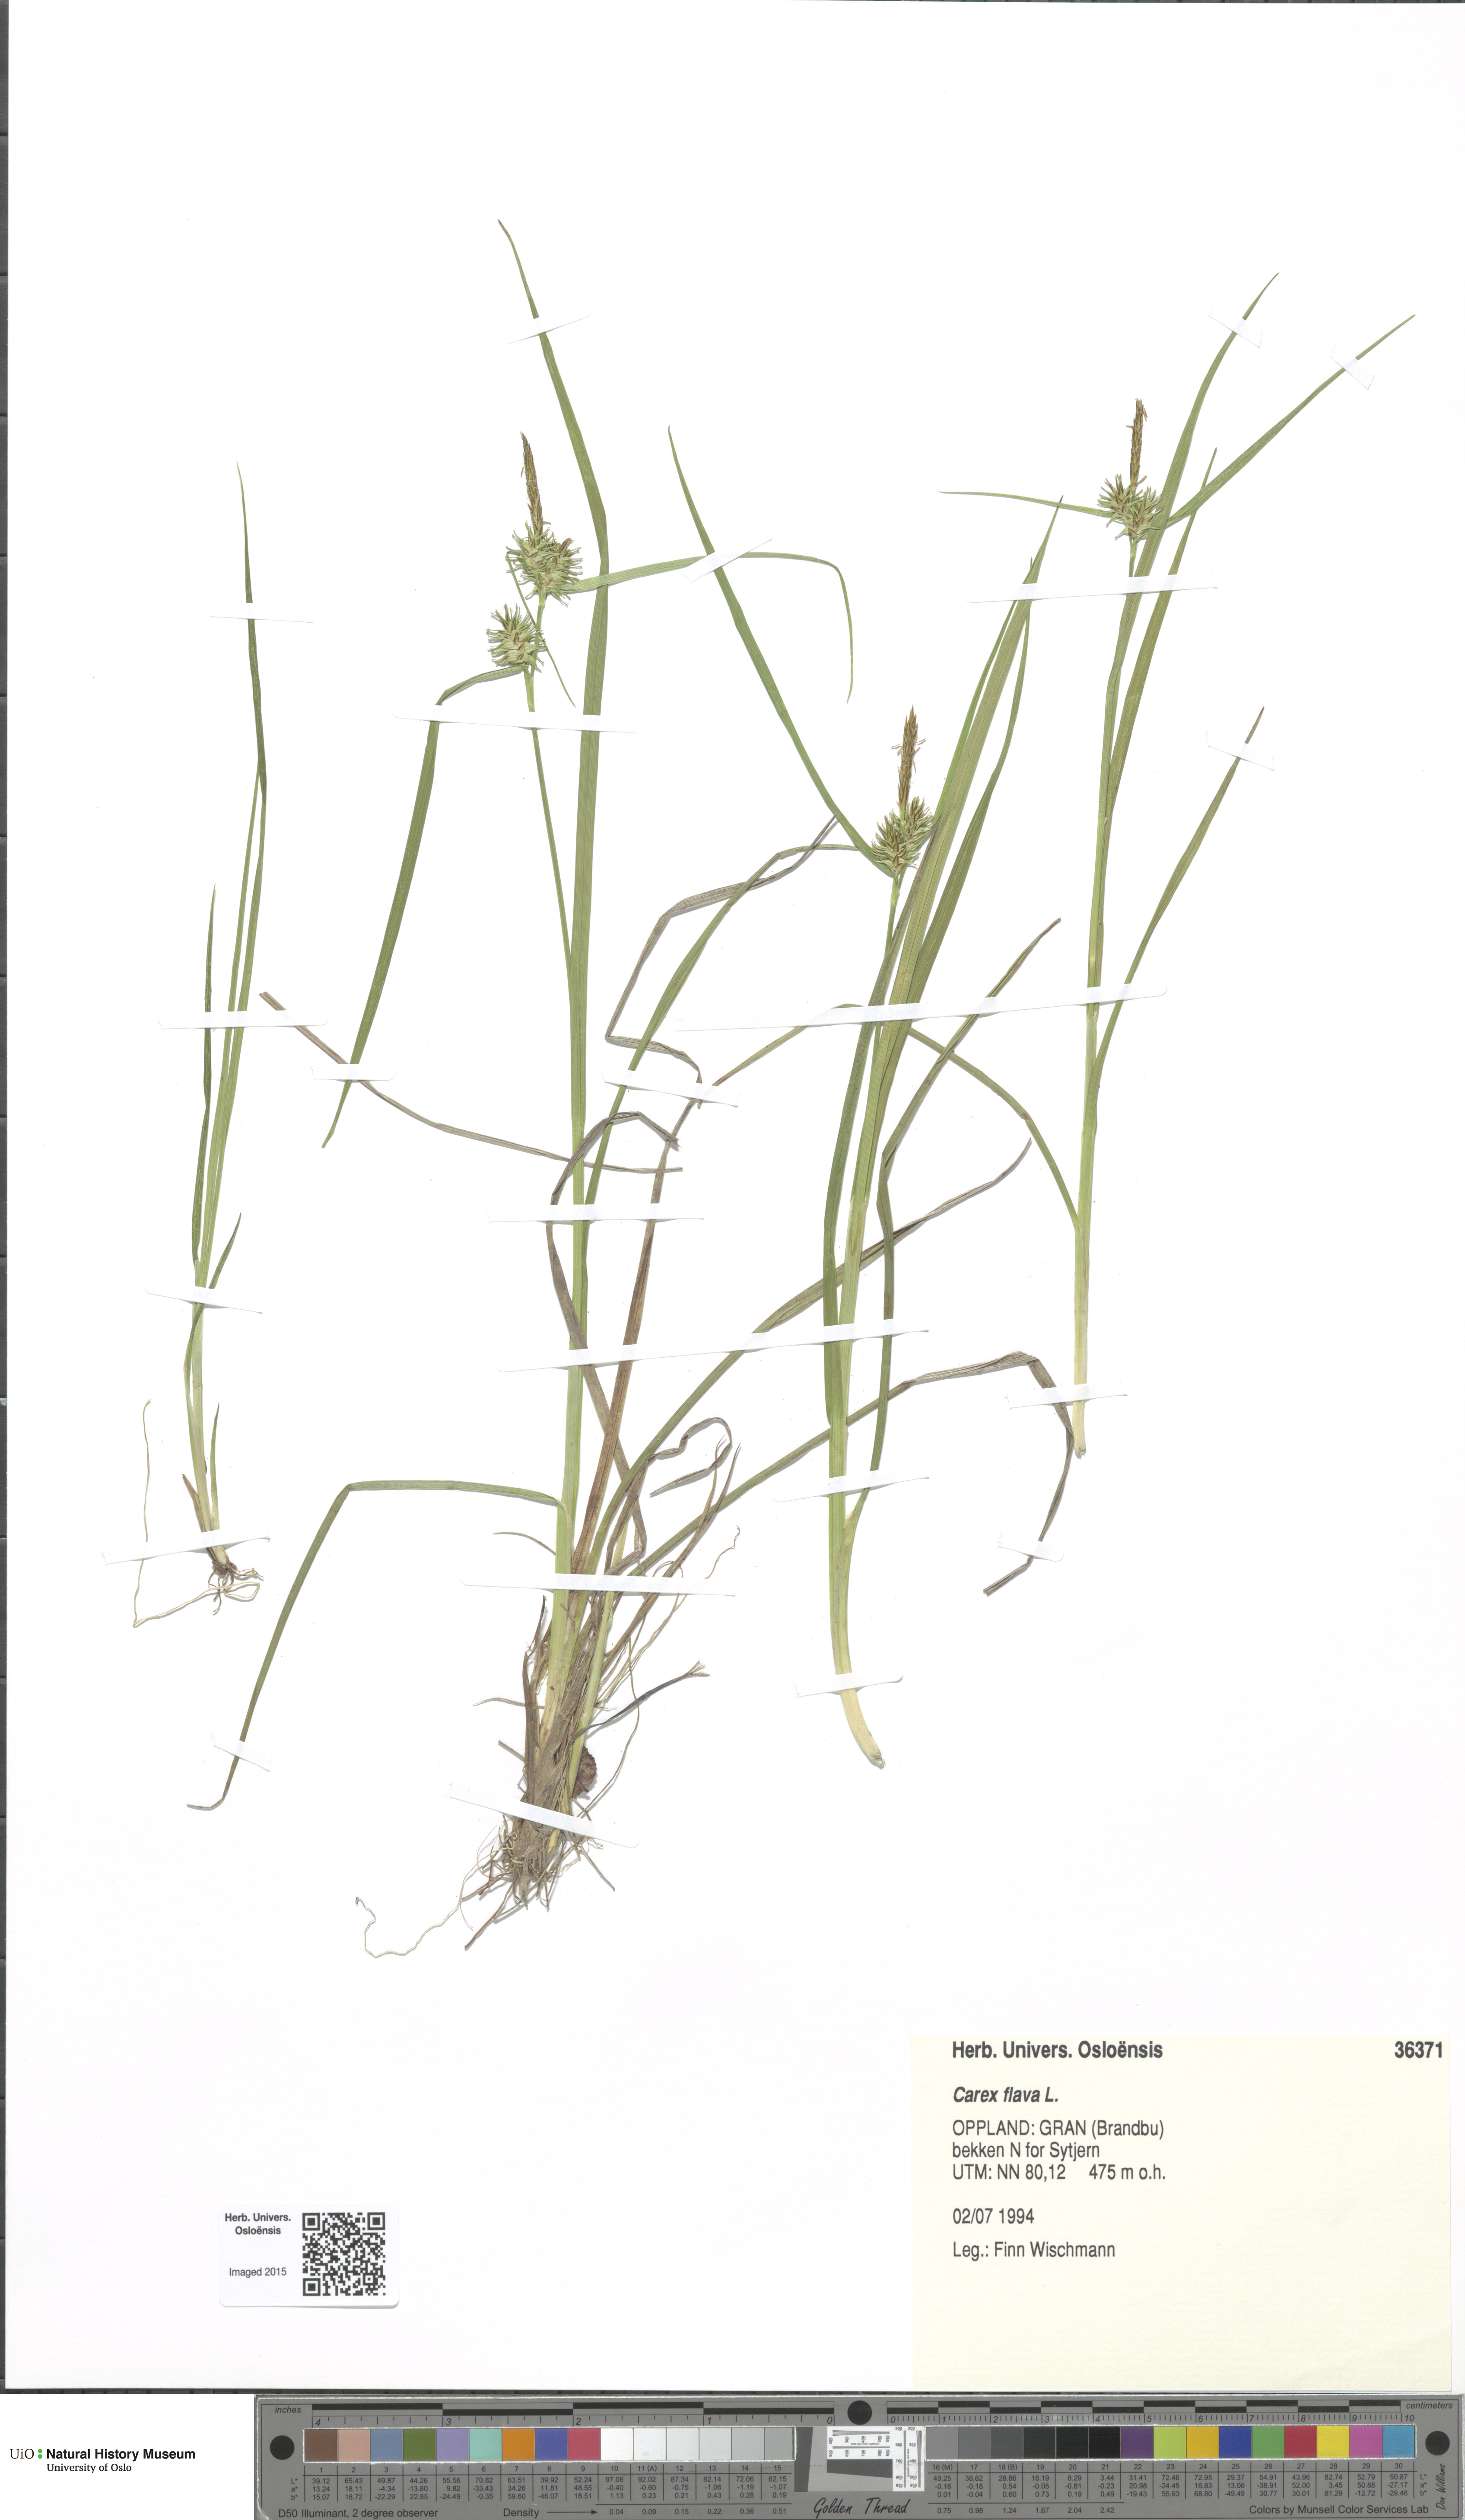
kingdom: Plantae
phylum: Tracheophyta
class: Liliopsida
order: Poales
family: Cyperaceae
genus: Carex
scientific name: Carex flava
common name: Large yellow-sedge
